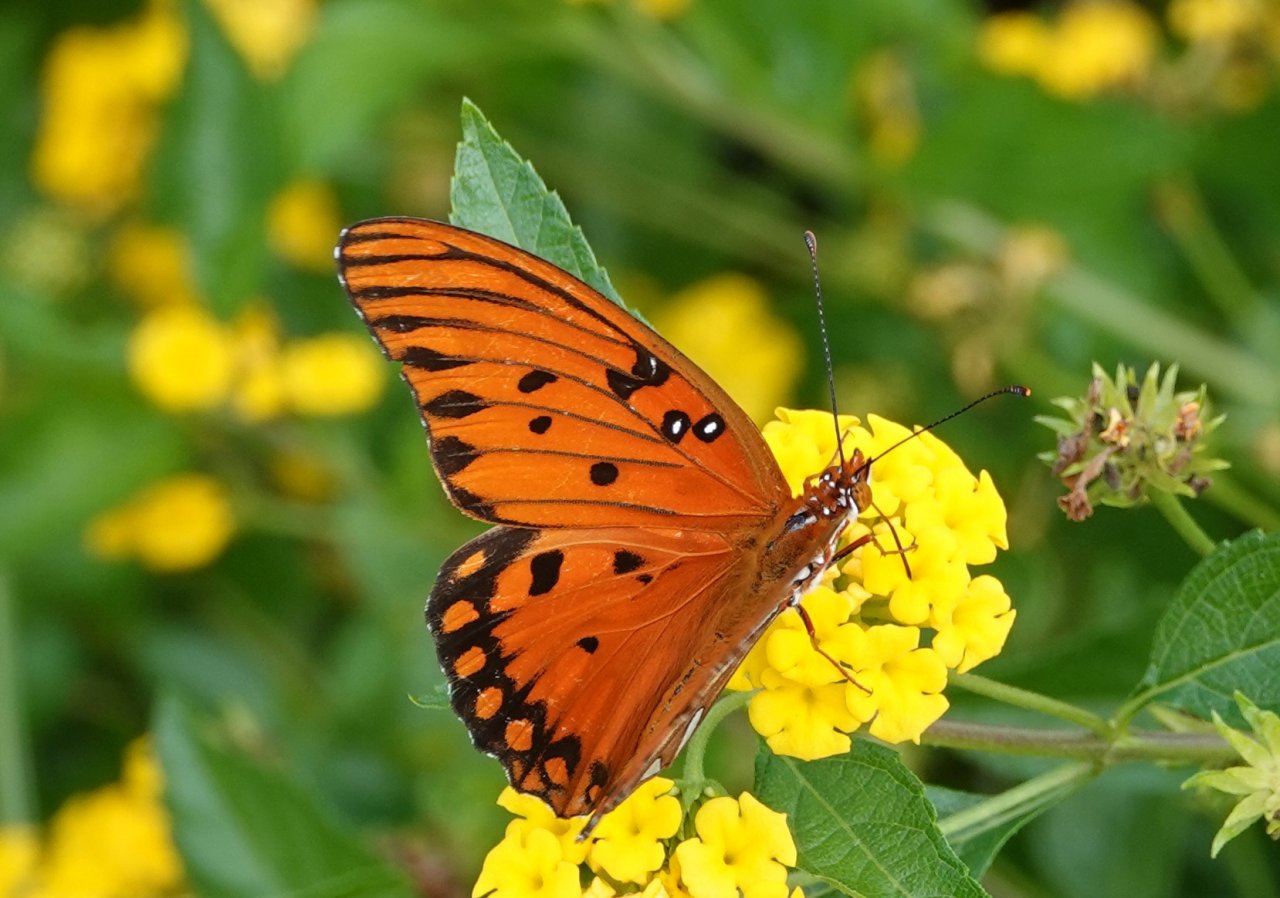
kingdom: Animalia
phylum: Arthropoda
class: Insecta
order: Lepidoptera
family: Nymphalidae
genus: Dione
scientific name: Dione vanillae
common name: Gulf Fritillary
